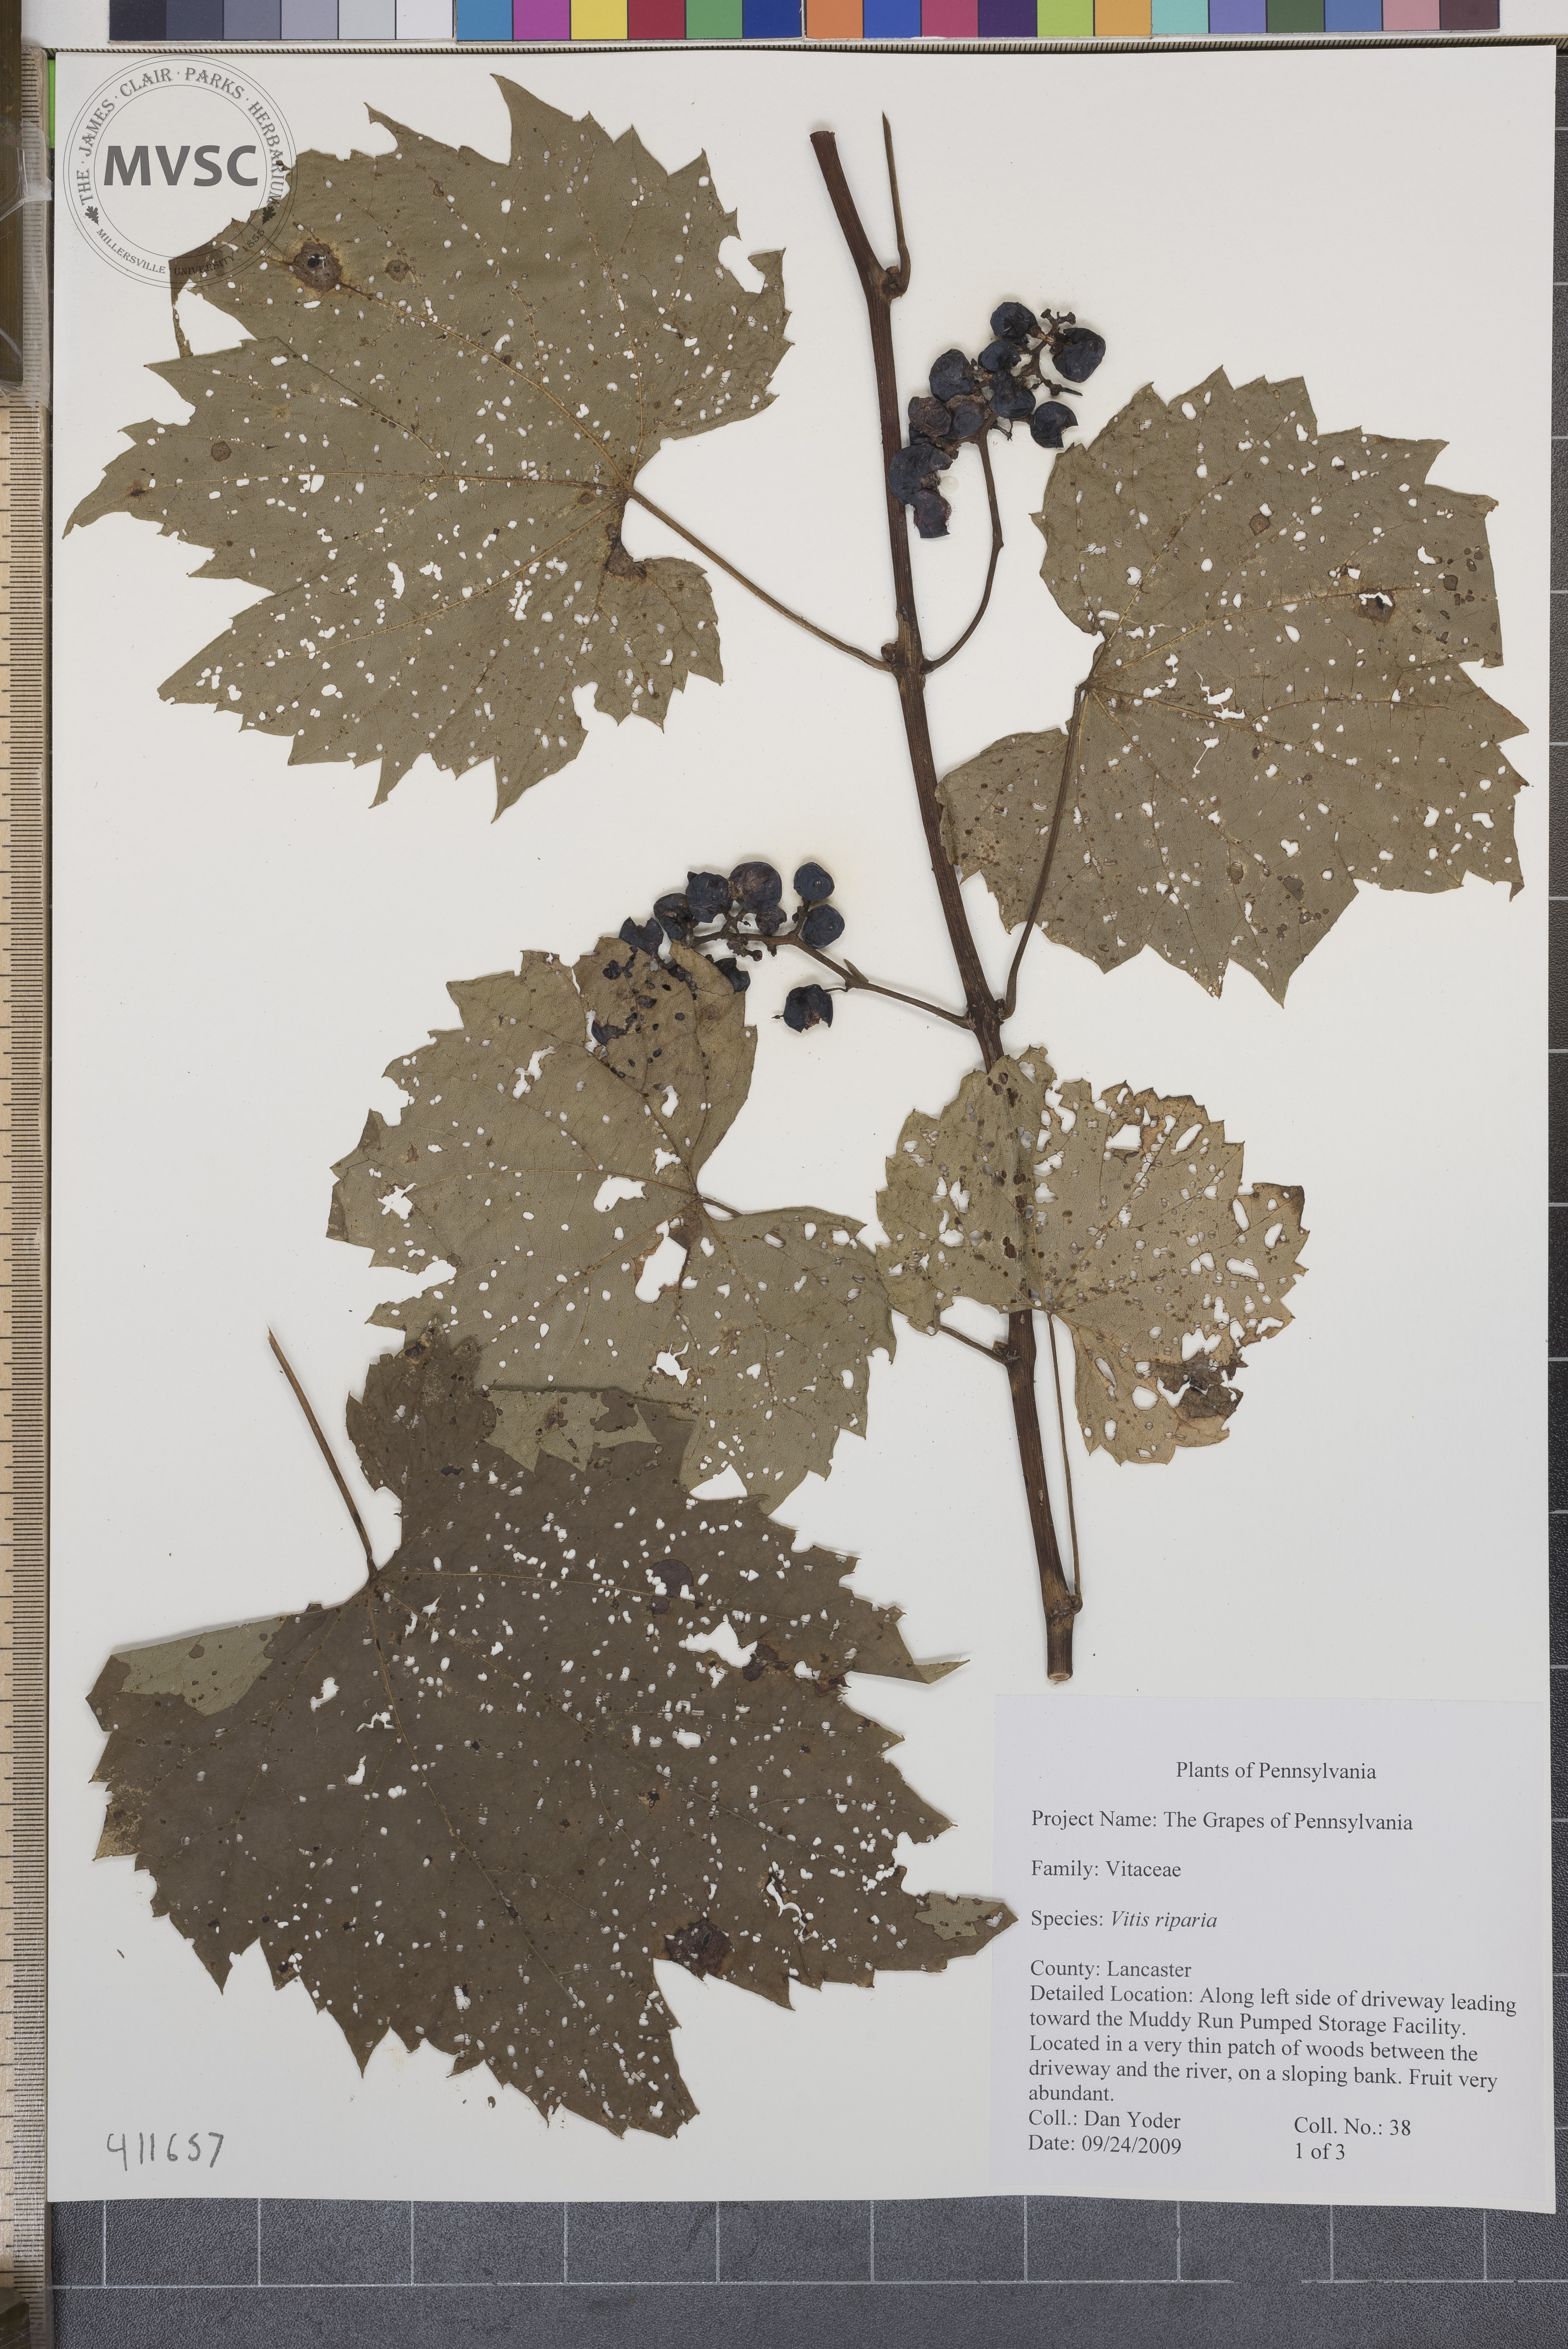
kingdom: Plantae
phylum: Tracheophyta
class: Magnoliopsida
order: Vitales
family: Vitaceae
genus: Vitis
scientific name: Vitis riparia
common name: Riverbank grape
